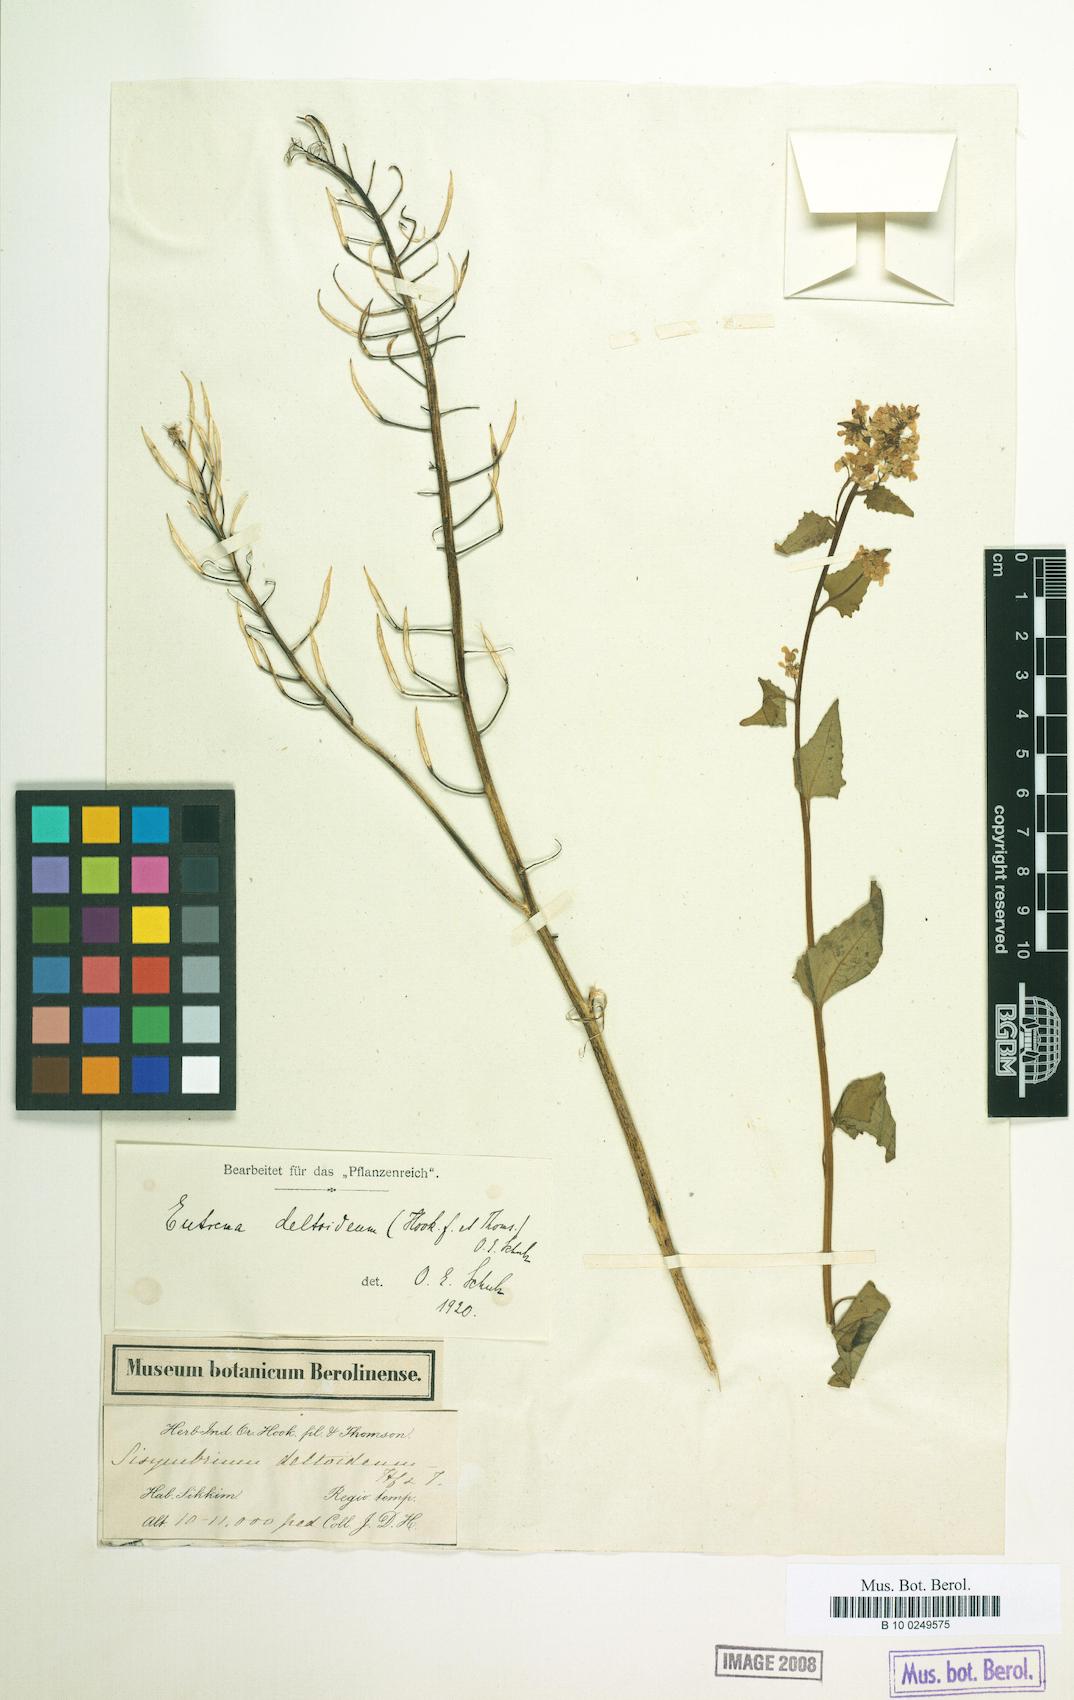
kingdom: Plantae
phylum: Tracheophyta
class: Magnoliopsida
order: Brassicales
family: Brassicaceae
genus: Eutrema
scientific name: Eutrema deltoideum
